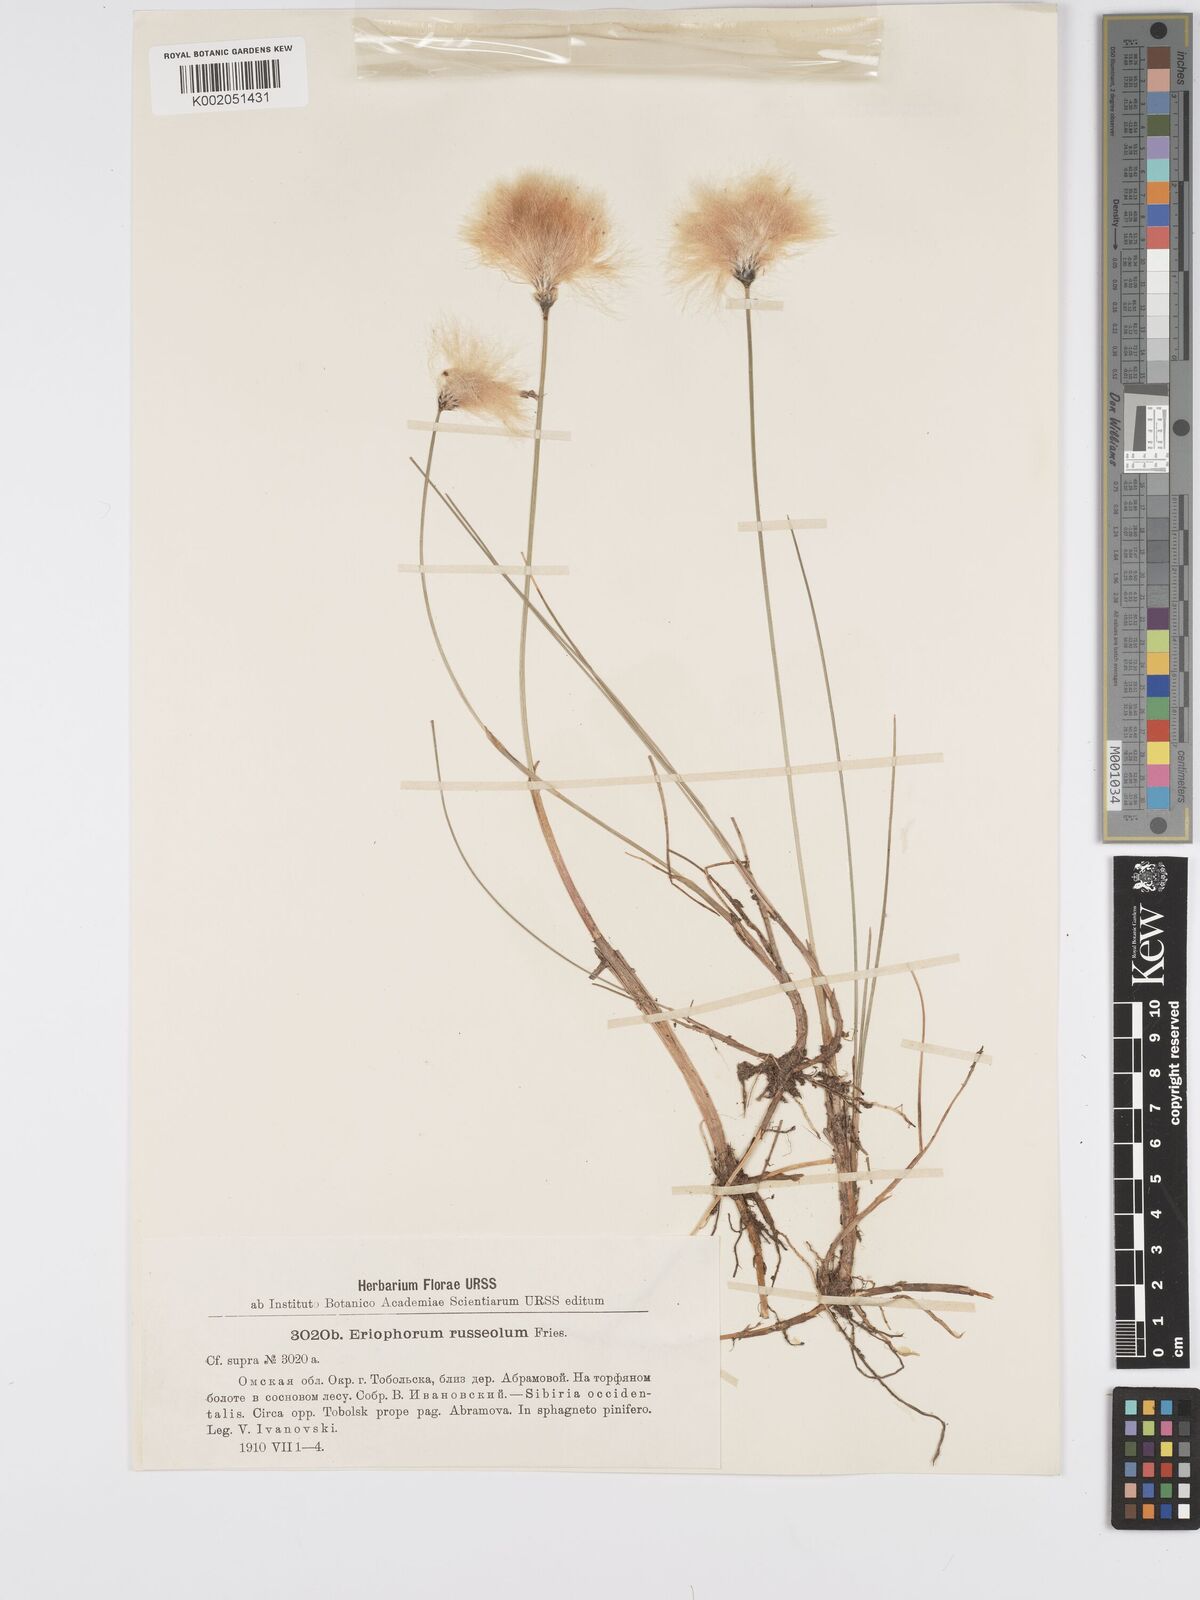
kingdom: Plantae
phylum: Tracheophyta
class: Liliopsida
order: Poales
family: Cyperaceae
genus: Eriophorum
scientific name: Eriophorum chamissonis
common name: Chamisso's cottongrass
